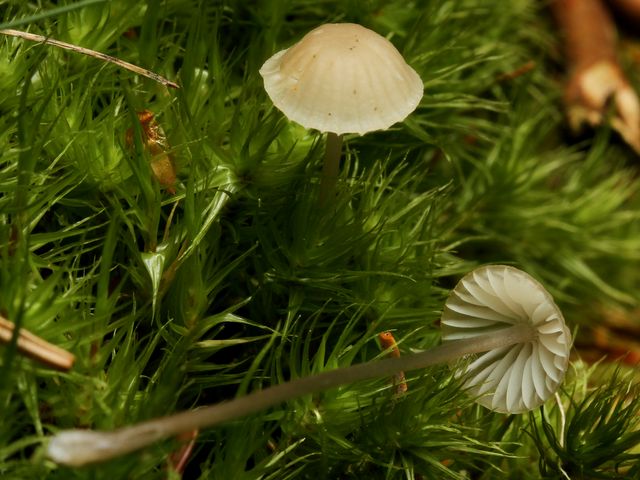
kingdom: Fungi
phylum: Basidiomycota
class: Agaricomycetes
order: Agaricales
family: Mycenaceae
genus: Mycena
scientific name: Mycena galopus
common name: hvidmælket huesvamp
